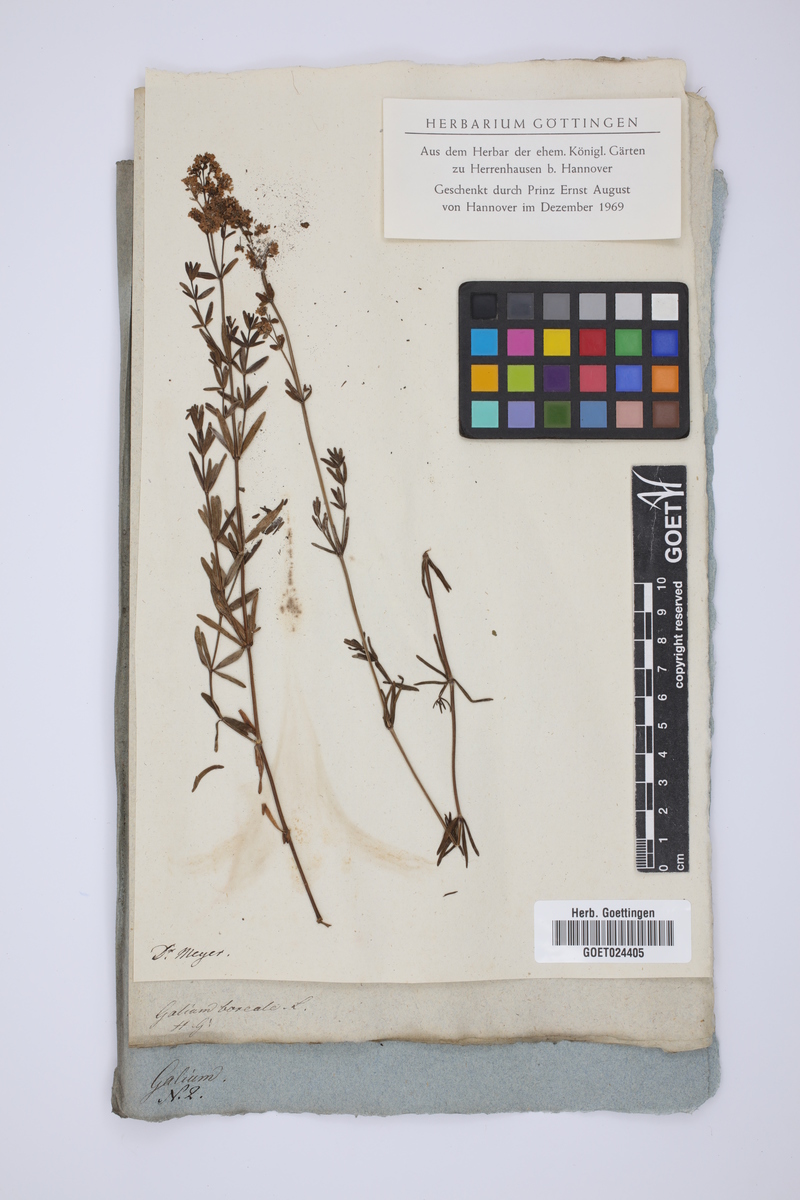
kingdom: Plantae
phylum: Tracheophyta
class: Magnoliopsida
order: Gentianales
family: Rubiaceae
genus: Galium
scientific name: Galium boreale
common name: Northern bedstraw
